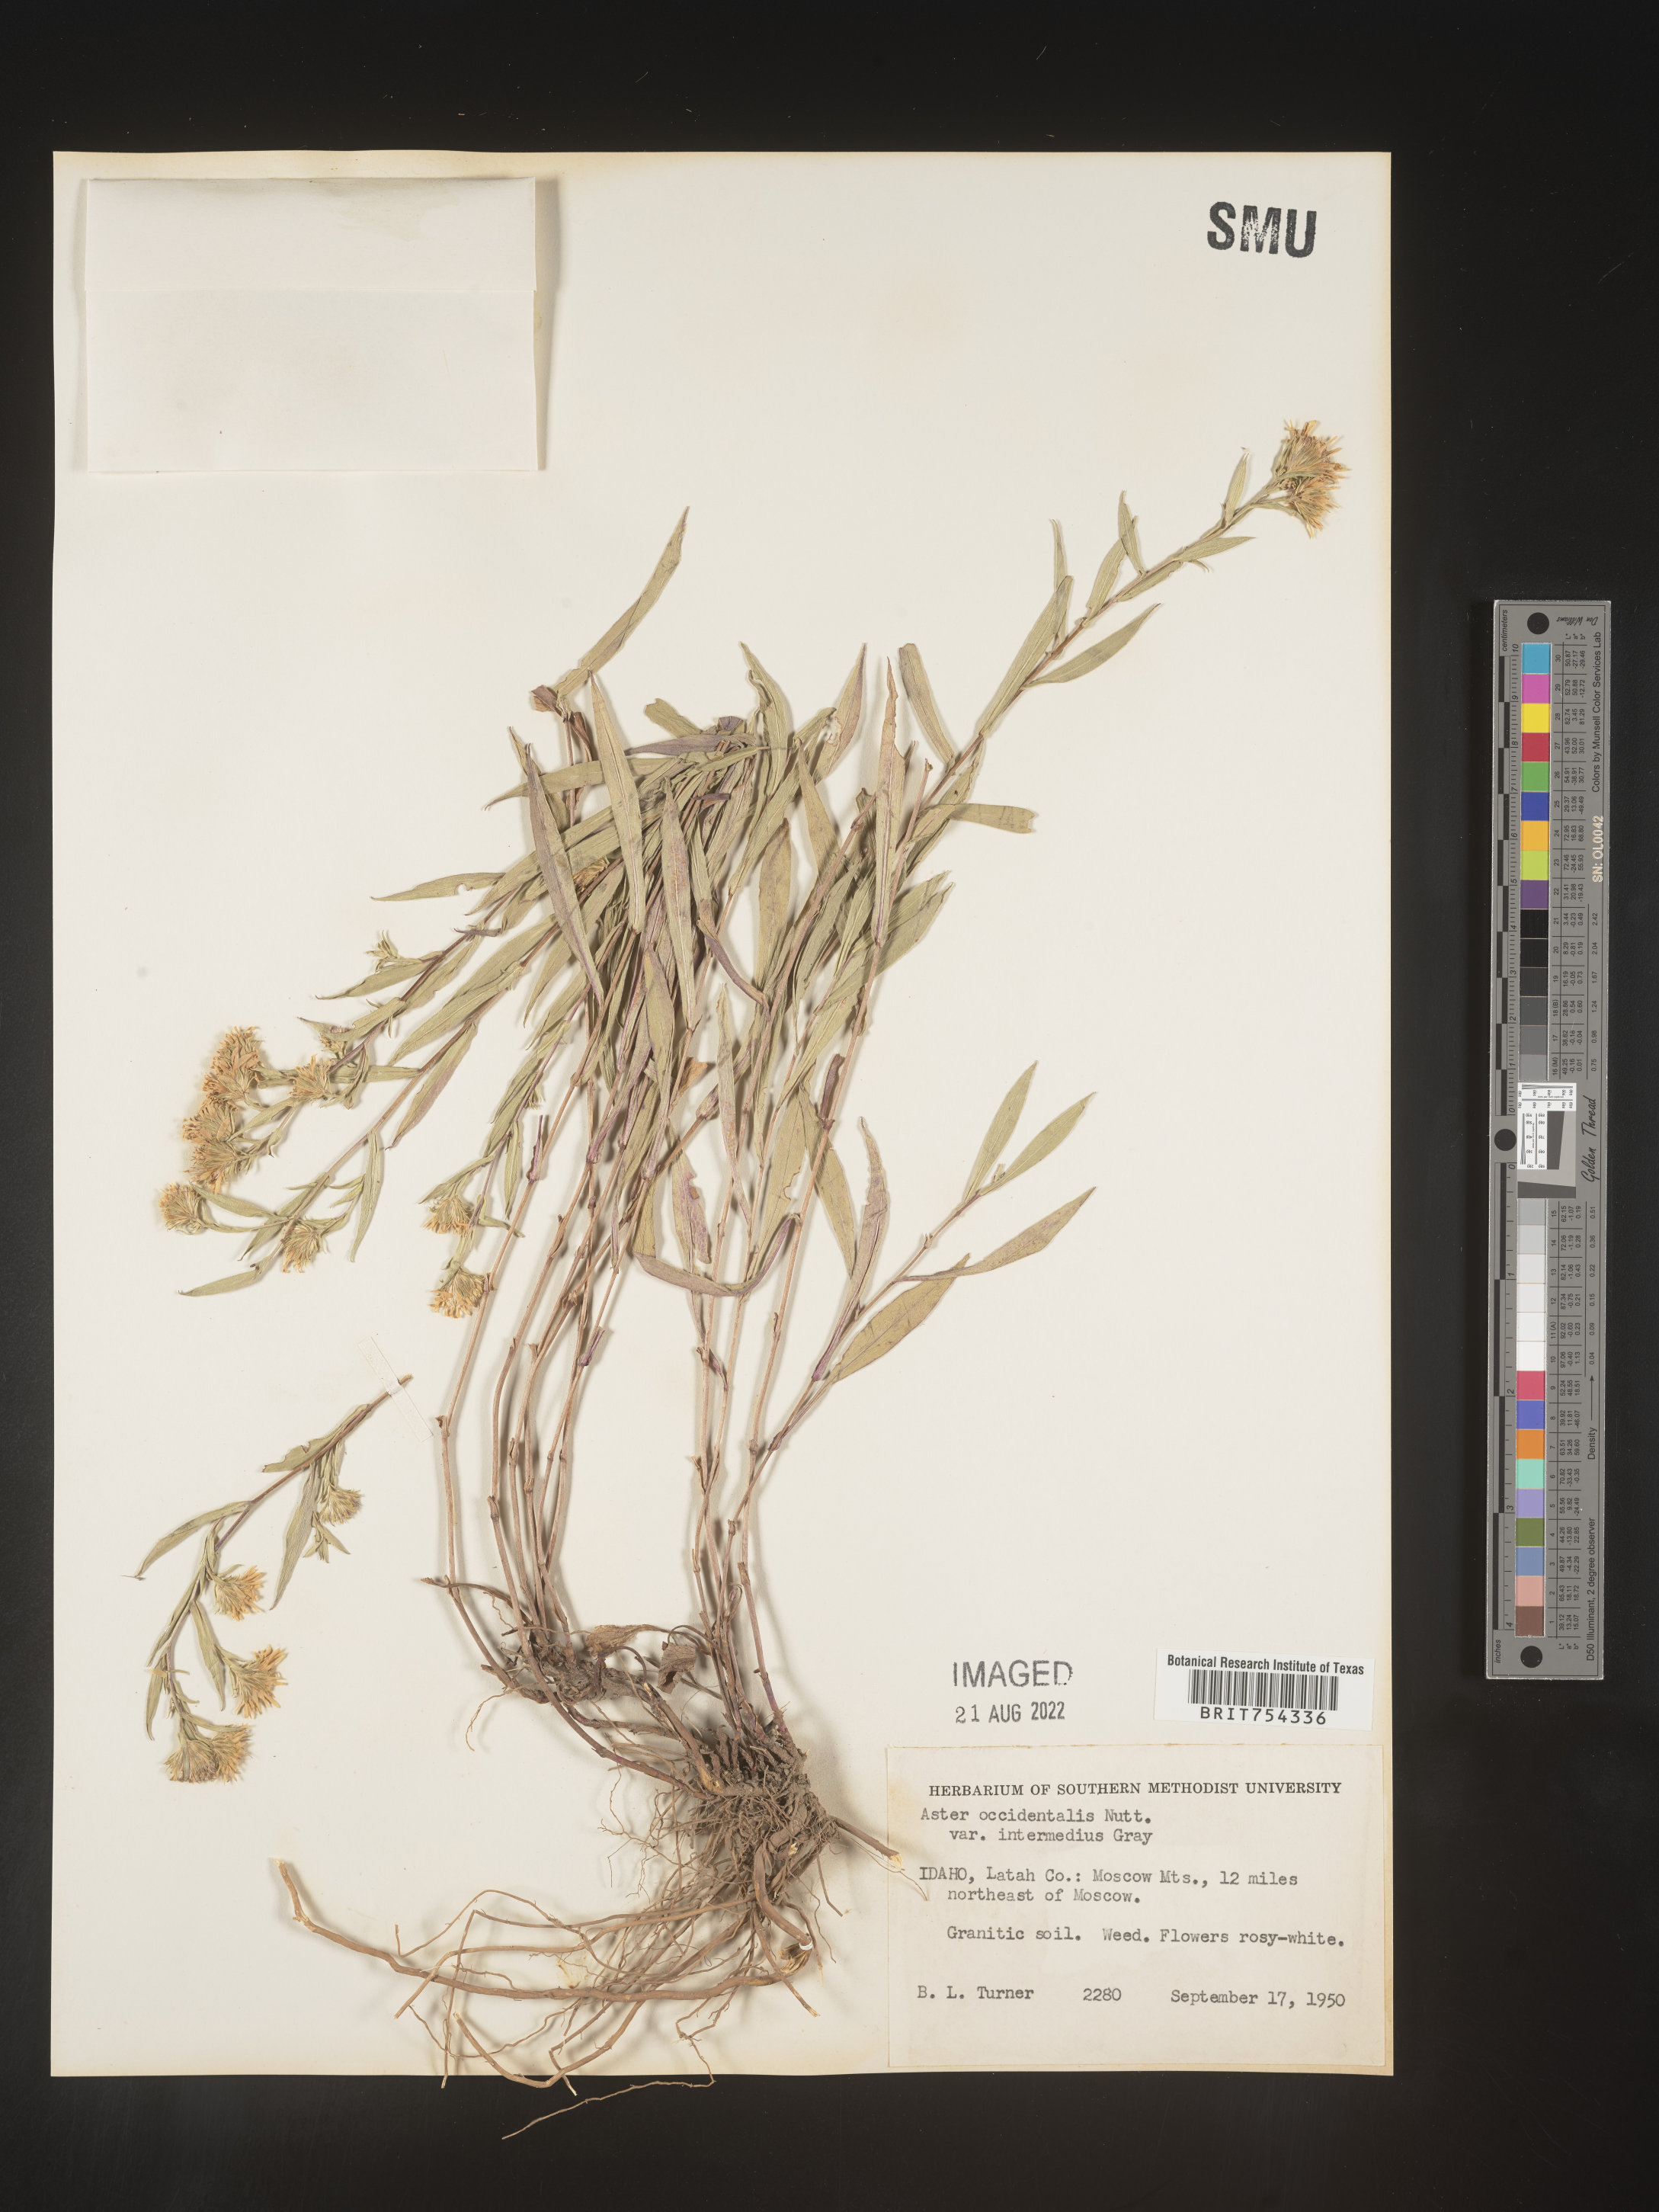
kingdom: Plantae
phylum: Tracheophyta
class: Magnoliopsida
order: Asterales
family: Asteraceae
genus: Symphyotrichum
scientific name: Symphyotrichum spathulatum
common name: Western mountain aster
